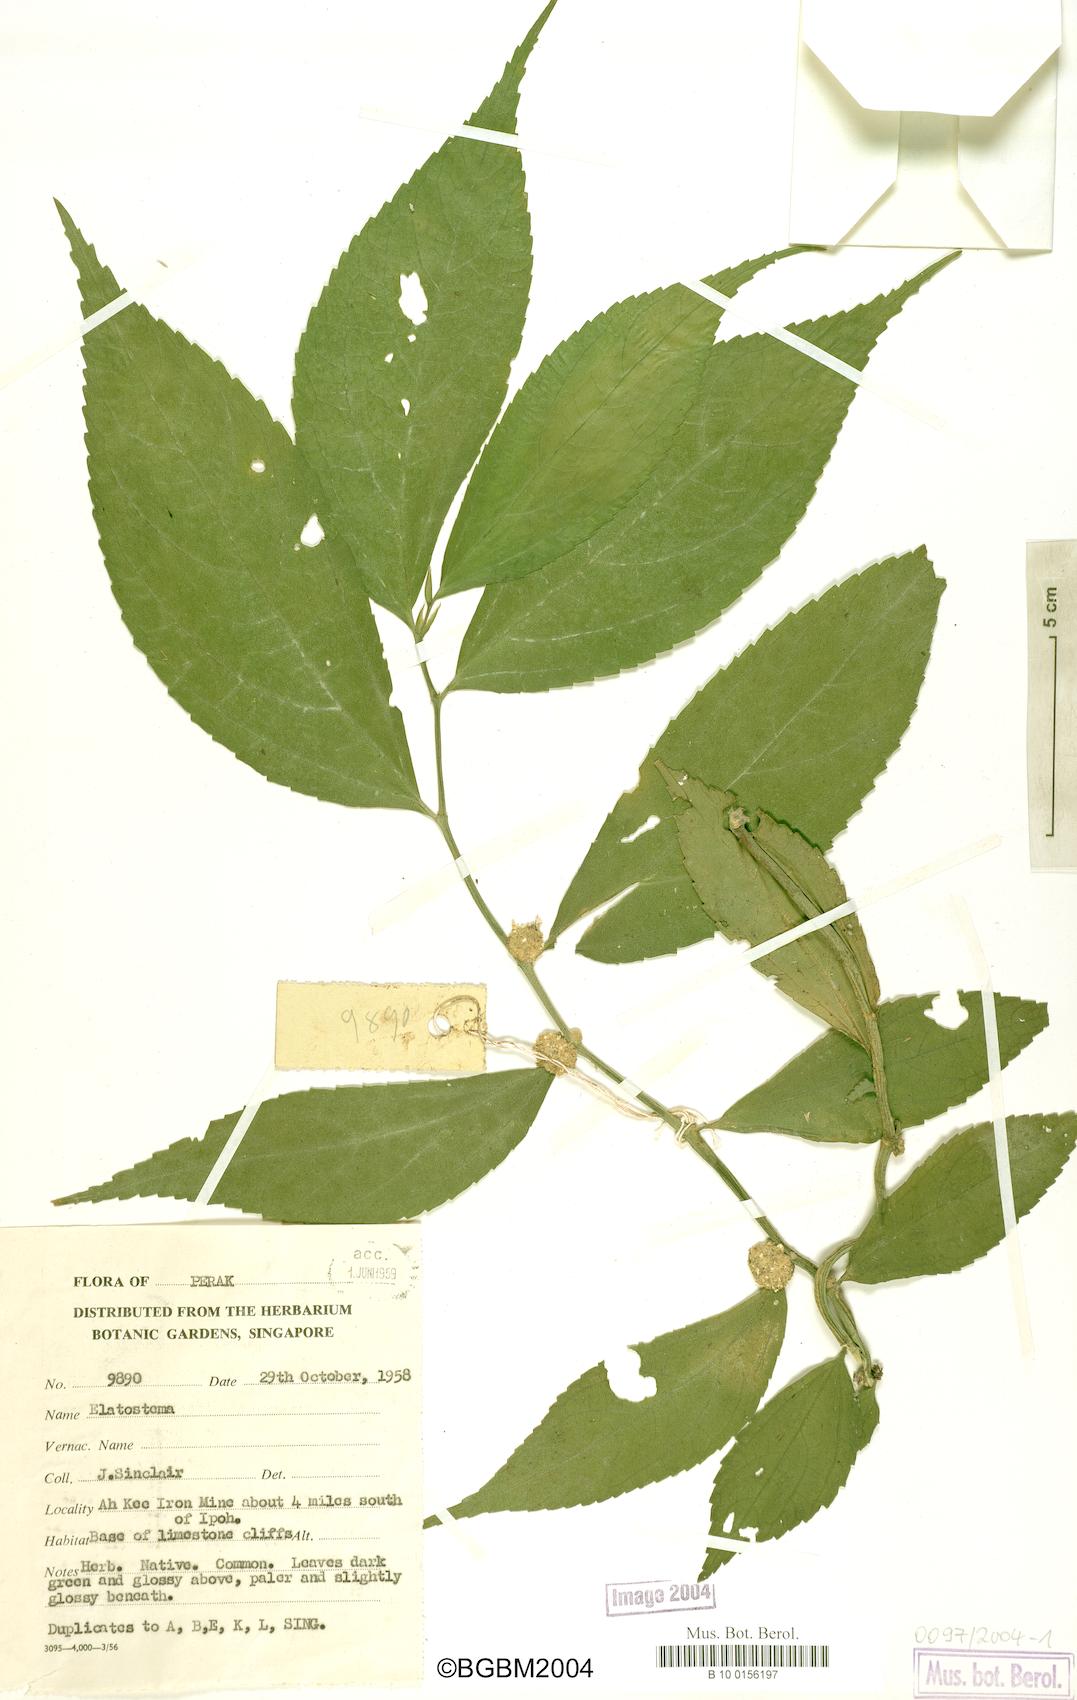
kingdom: Plantae
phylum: Tracheophyta
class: Magnoliopsida
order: Rosales
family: Urticaceae
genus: Elatostema
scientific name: Elatostema
